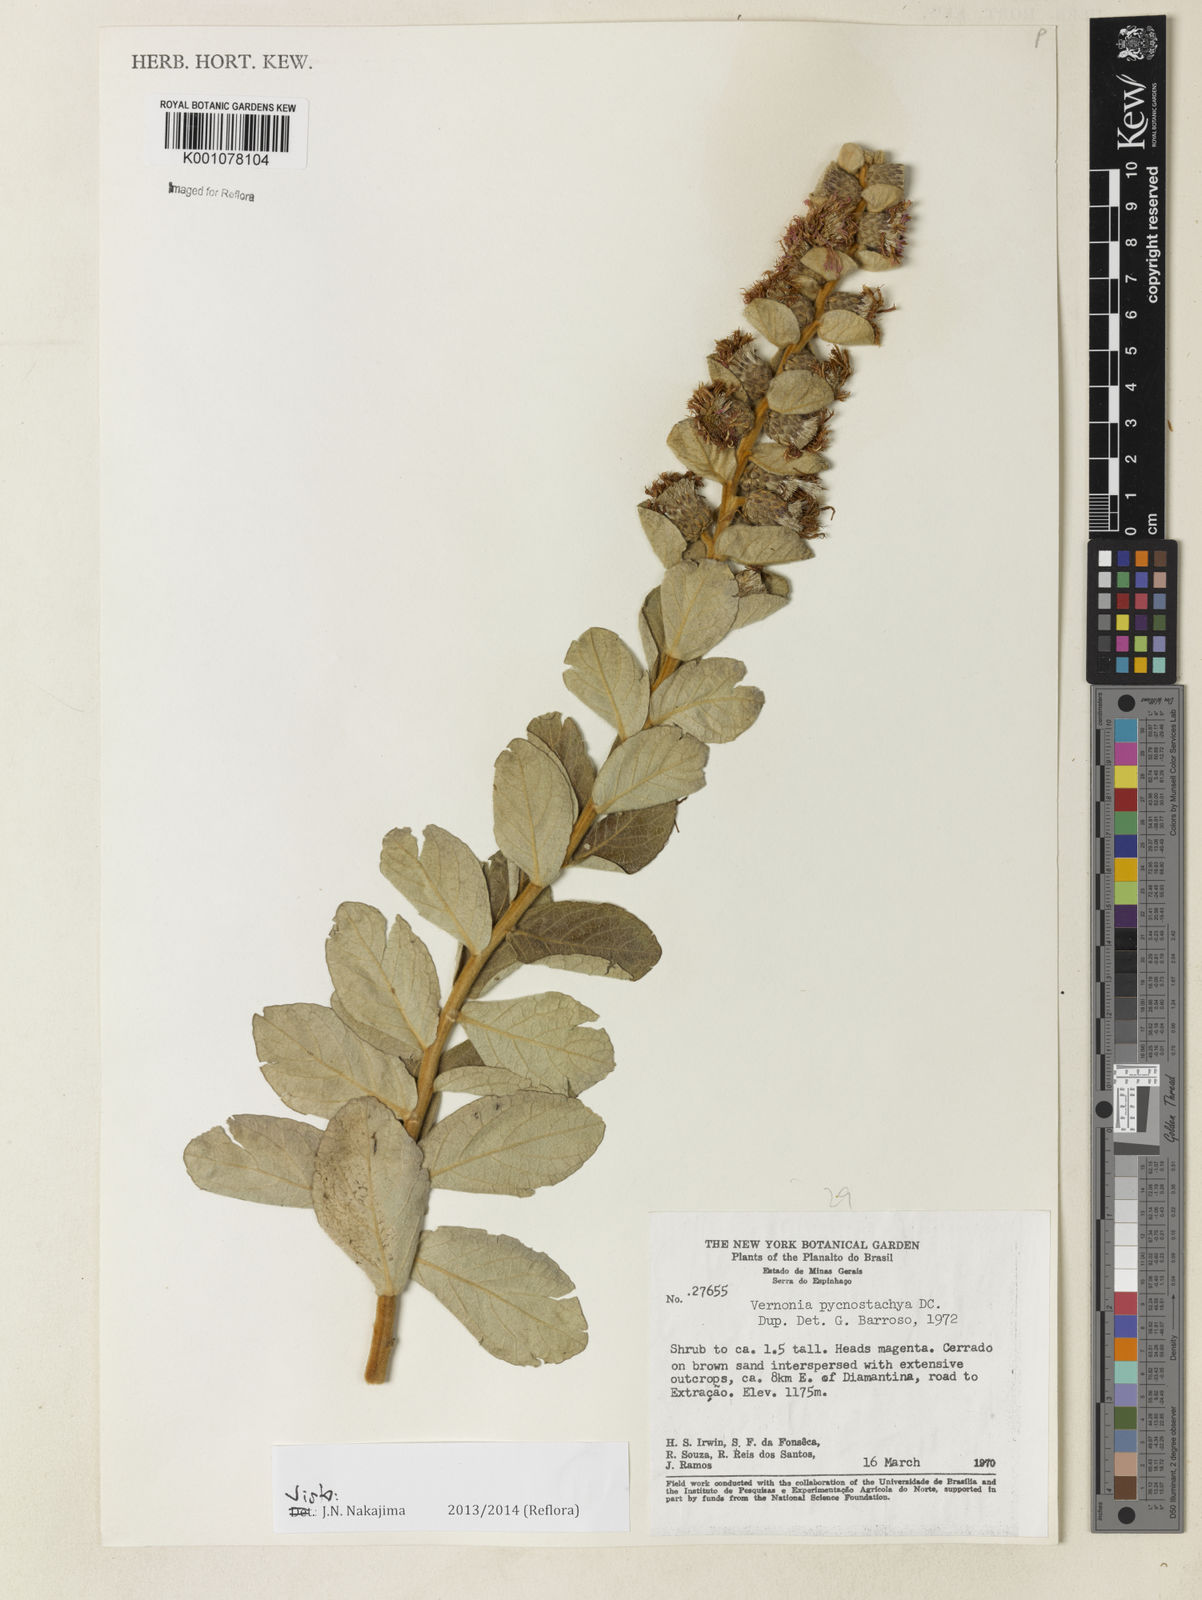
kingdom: Plantae
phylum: Tracheophyta
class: Magnoliopsida
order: Asterales
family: Asteraceae
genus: Lessingianthus
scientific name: Lessingianthus pycnostachyus
